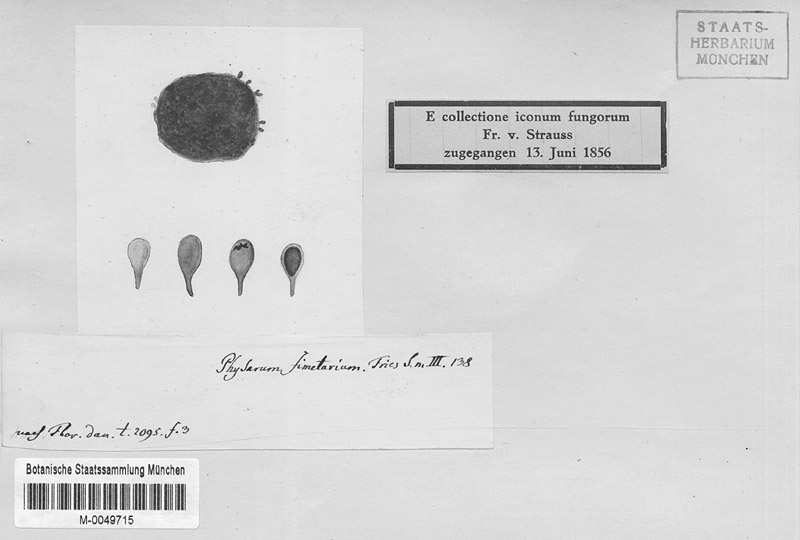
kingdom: Protozoa
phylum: Mycetozoa
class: Myxomycetes
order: Physarales
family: Physaraceae
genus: Physarum
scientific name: Physarum
